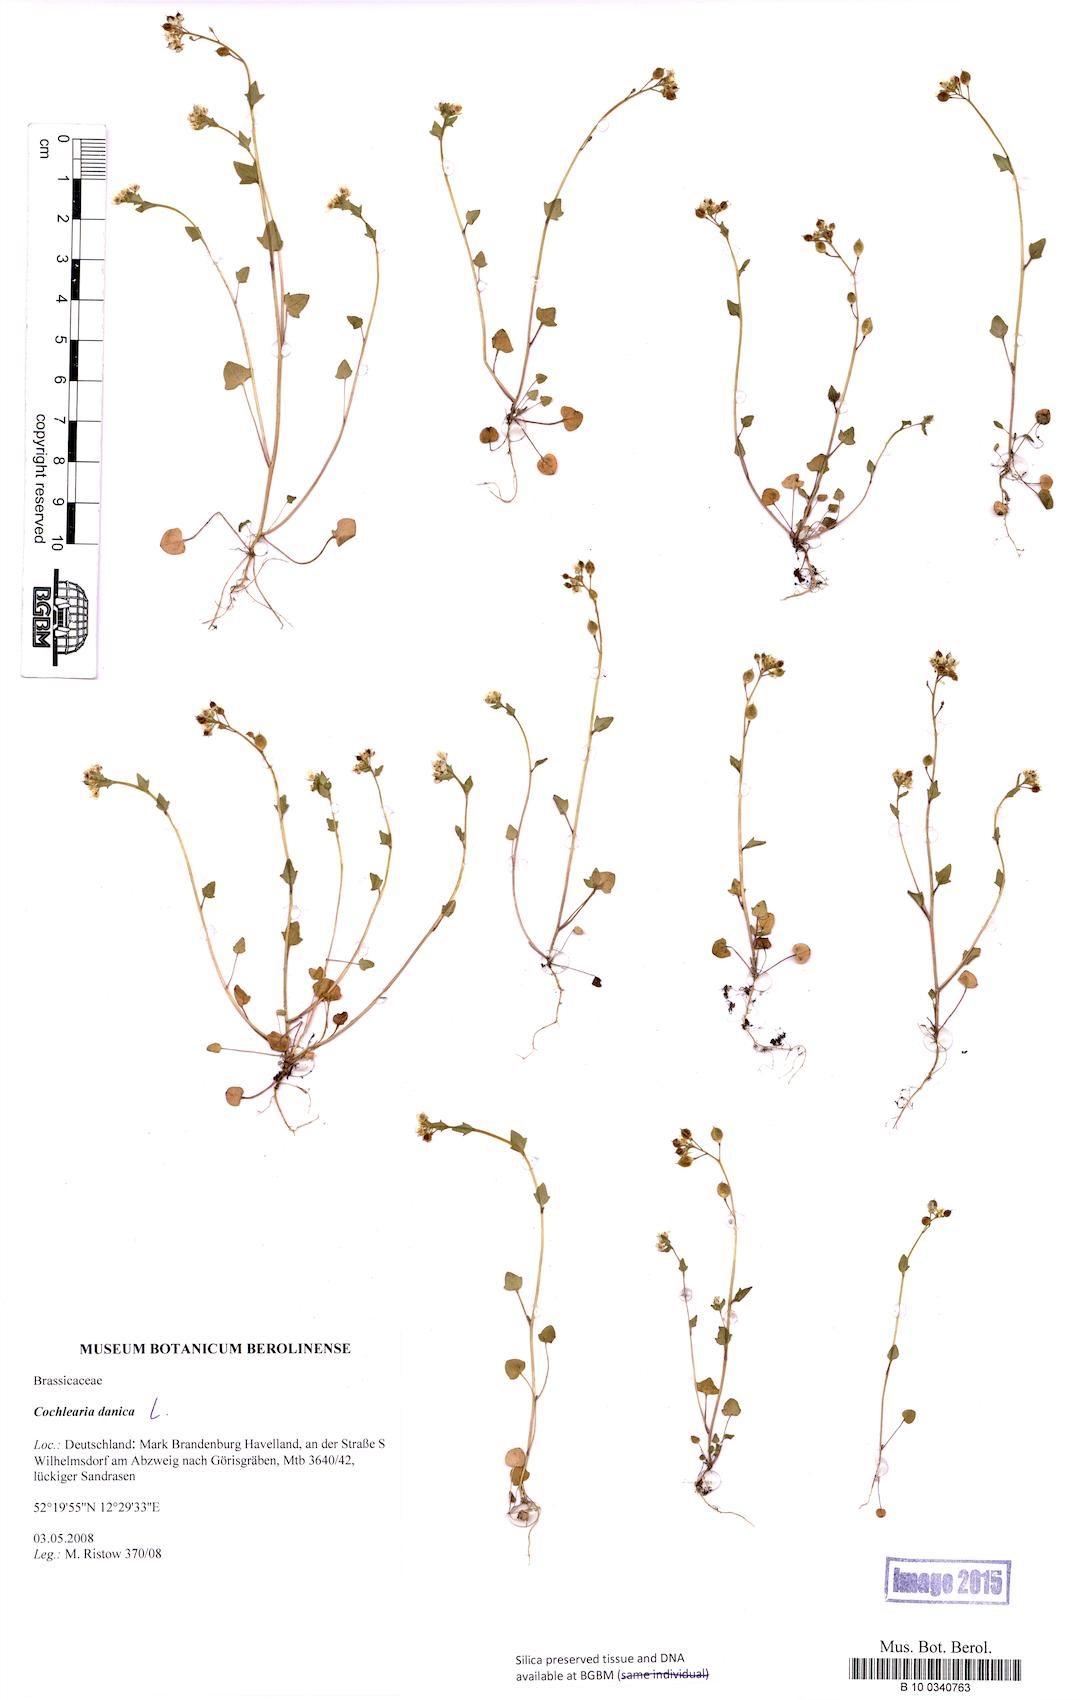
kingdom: Plantae
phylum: Tracheophyta
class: Magnoliopsida
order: Brassicales
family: Brassicaceae
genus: Cochlearia
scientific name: Cochlearia danica
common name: Early scurvygrass
